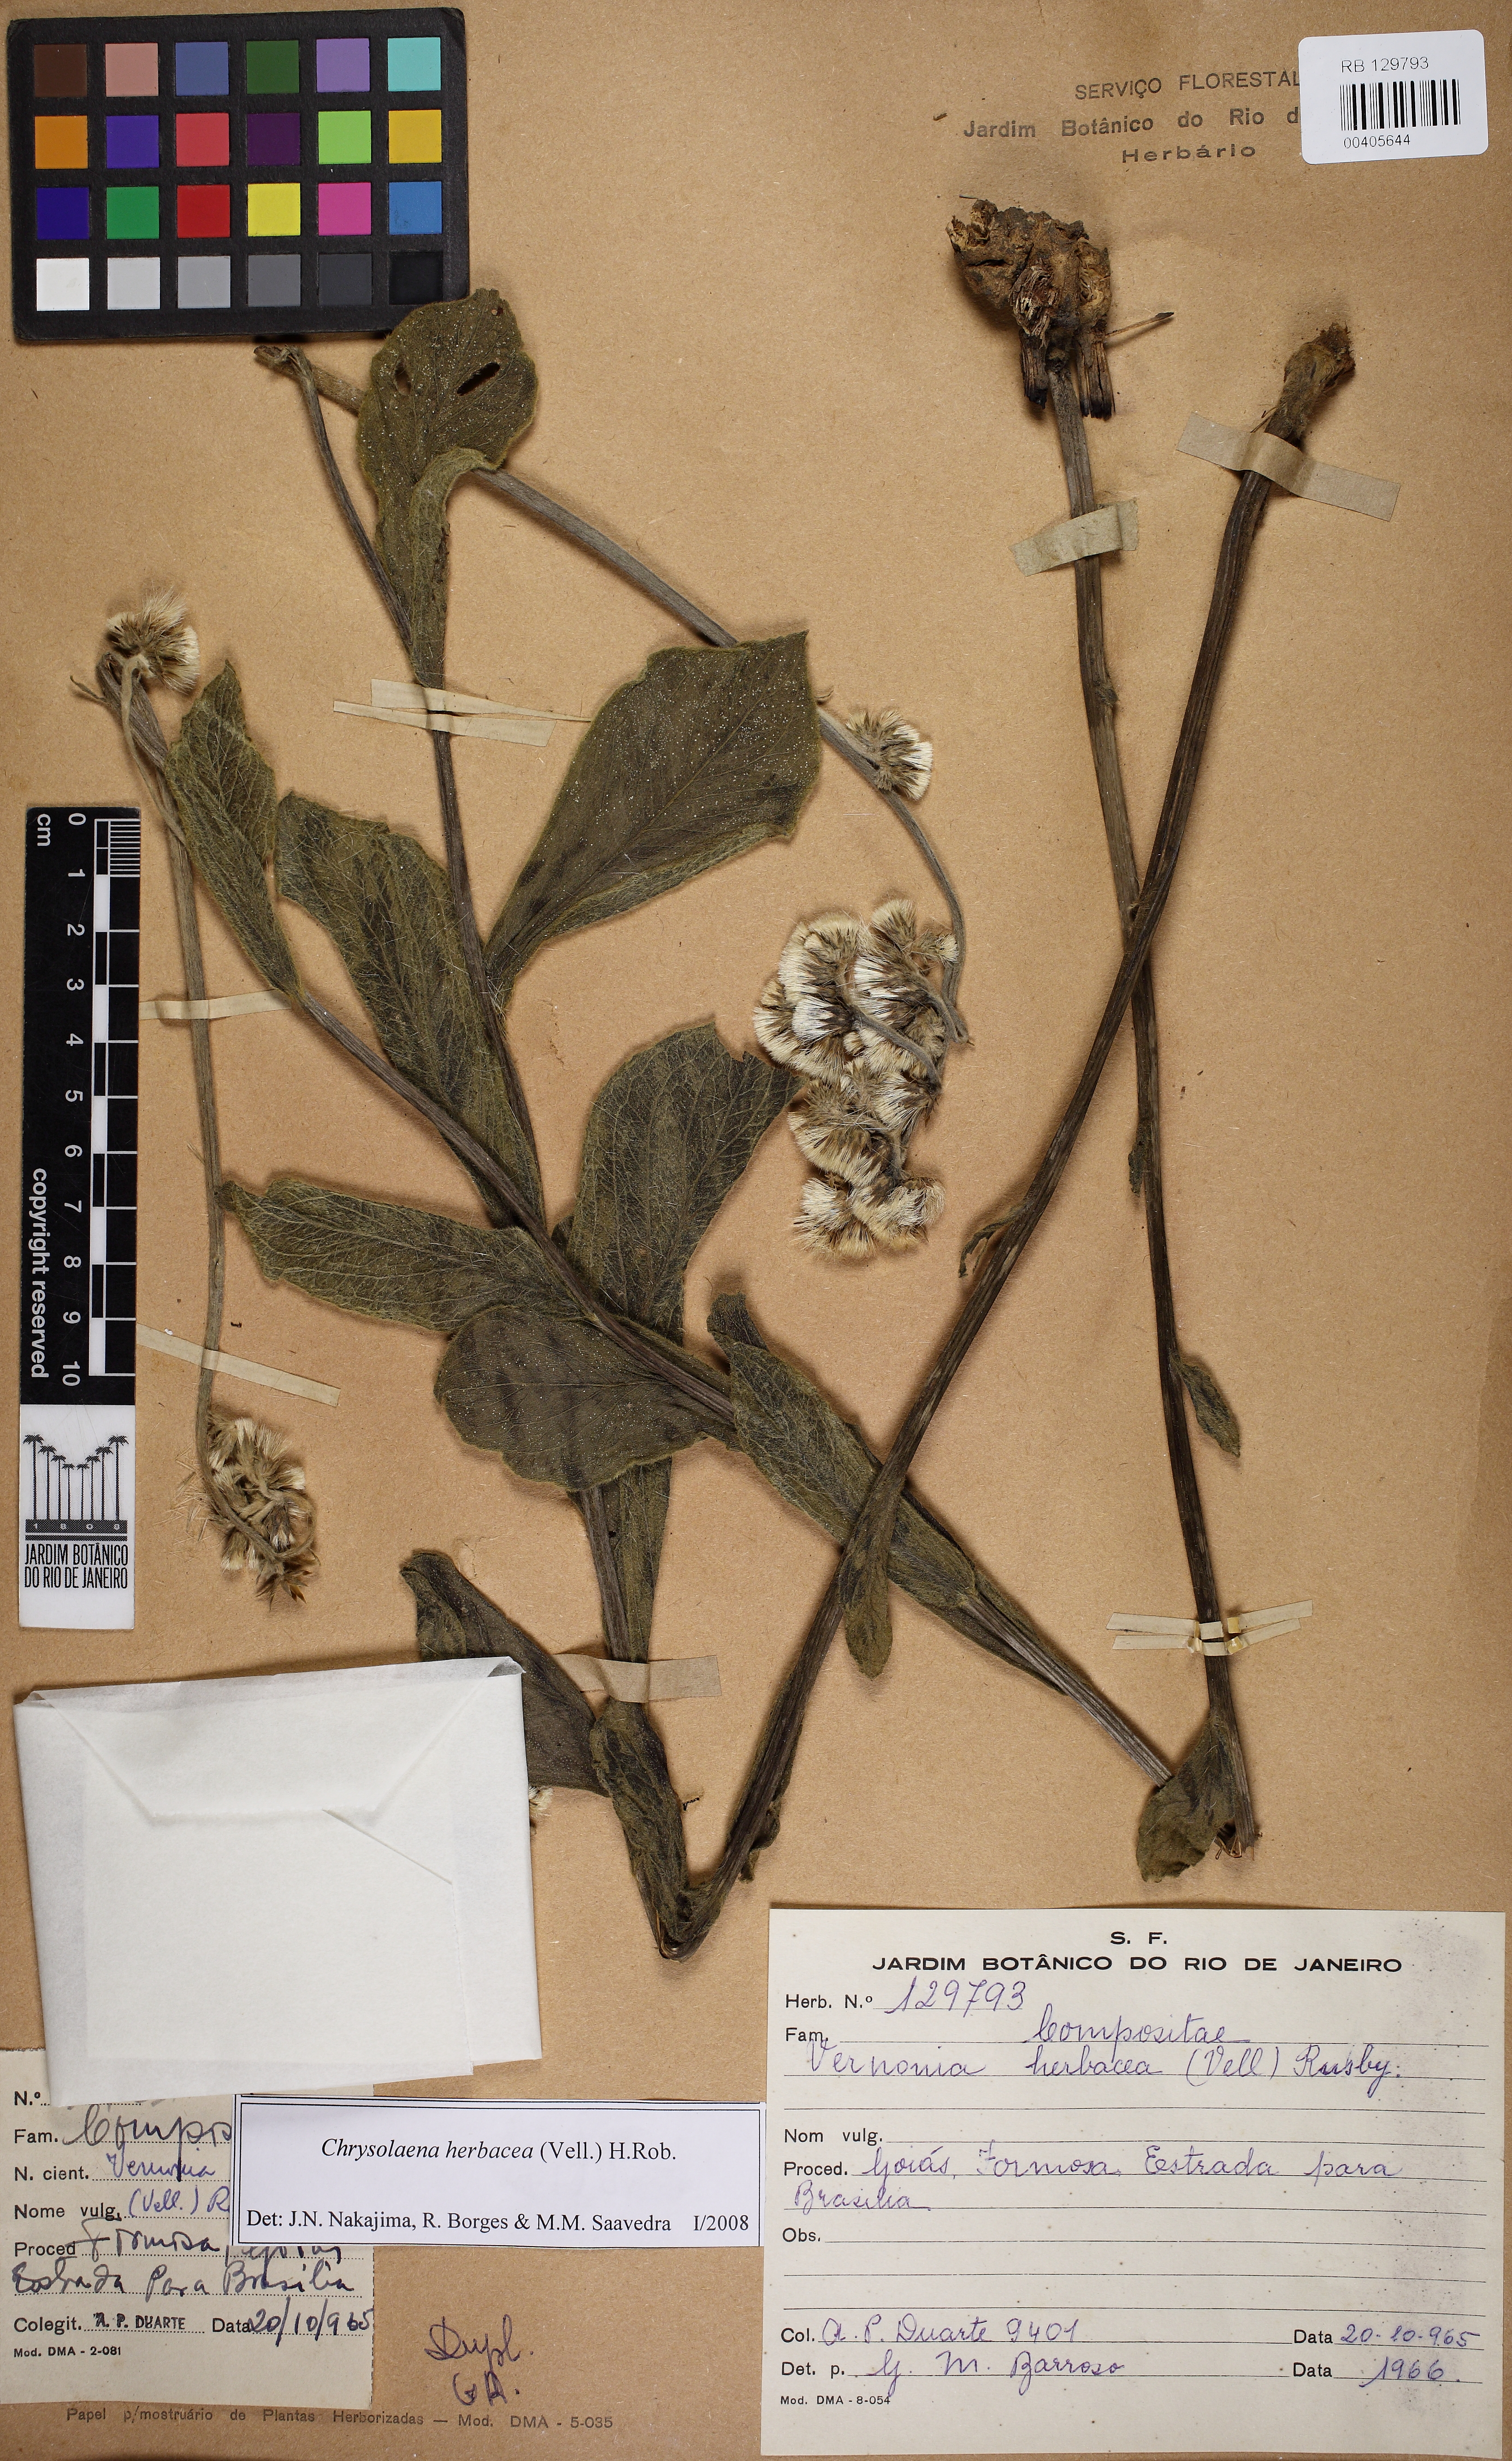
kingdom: Plantae
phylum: Tracheophyta
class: Magnoliopsida
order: Asterales
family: Asteraceae
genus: Chrysolaena
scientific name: Chrysolaena obovata
